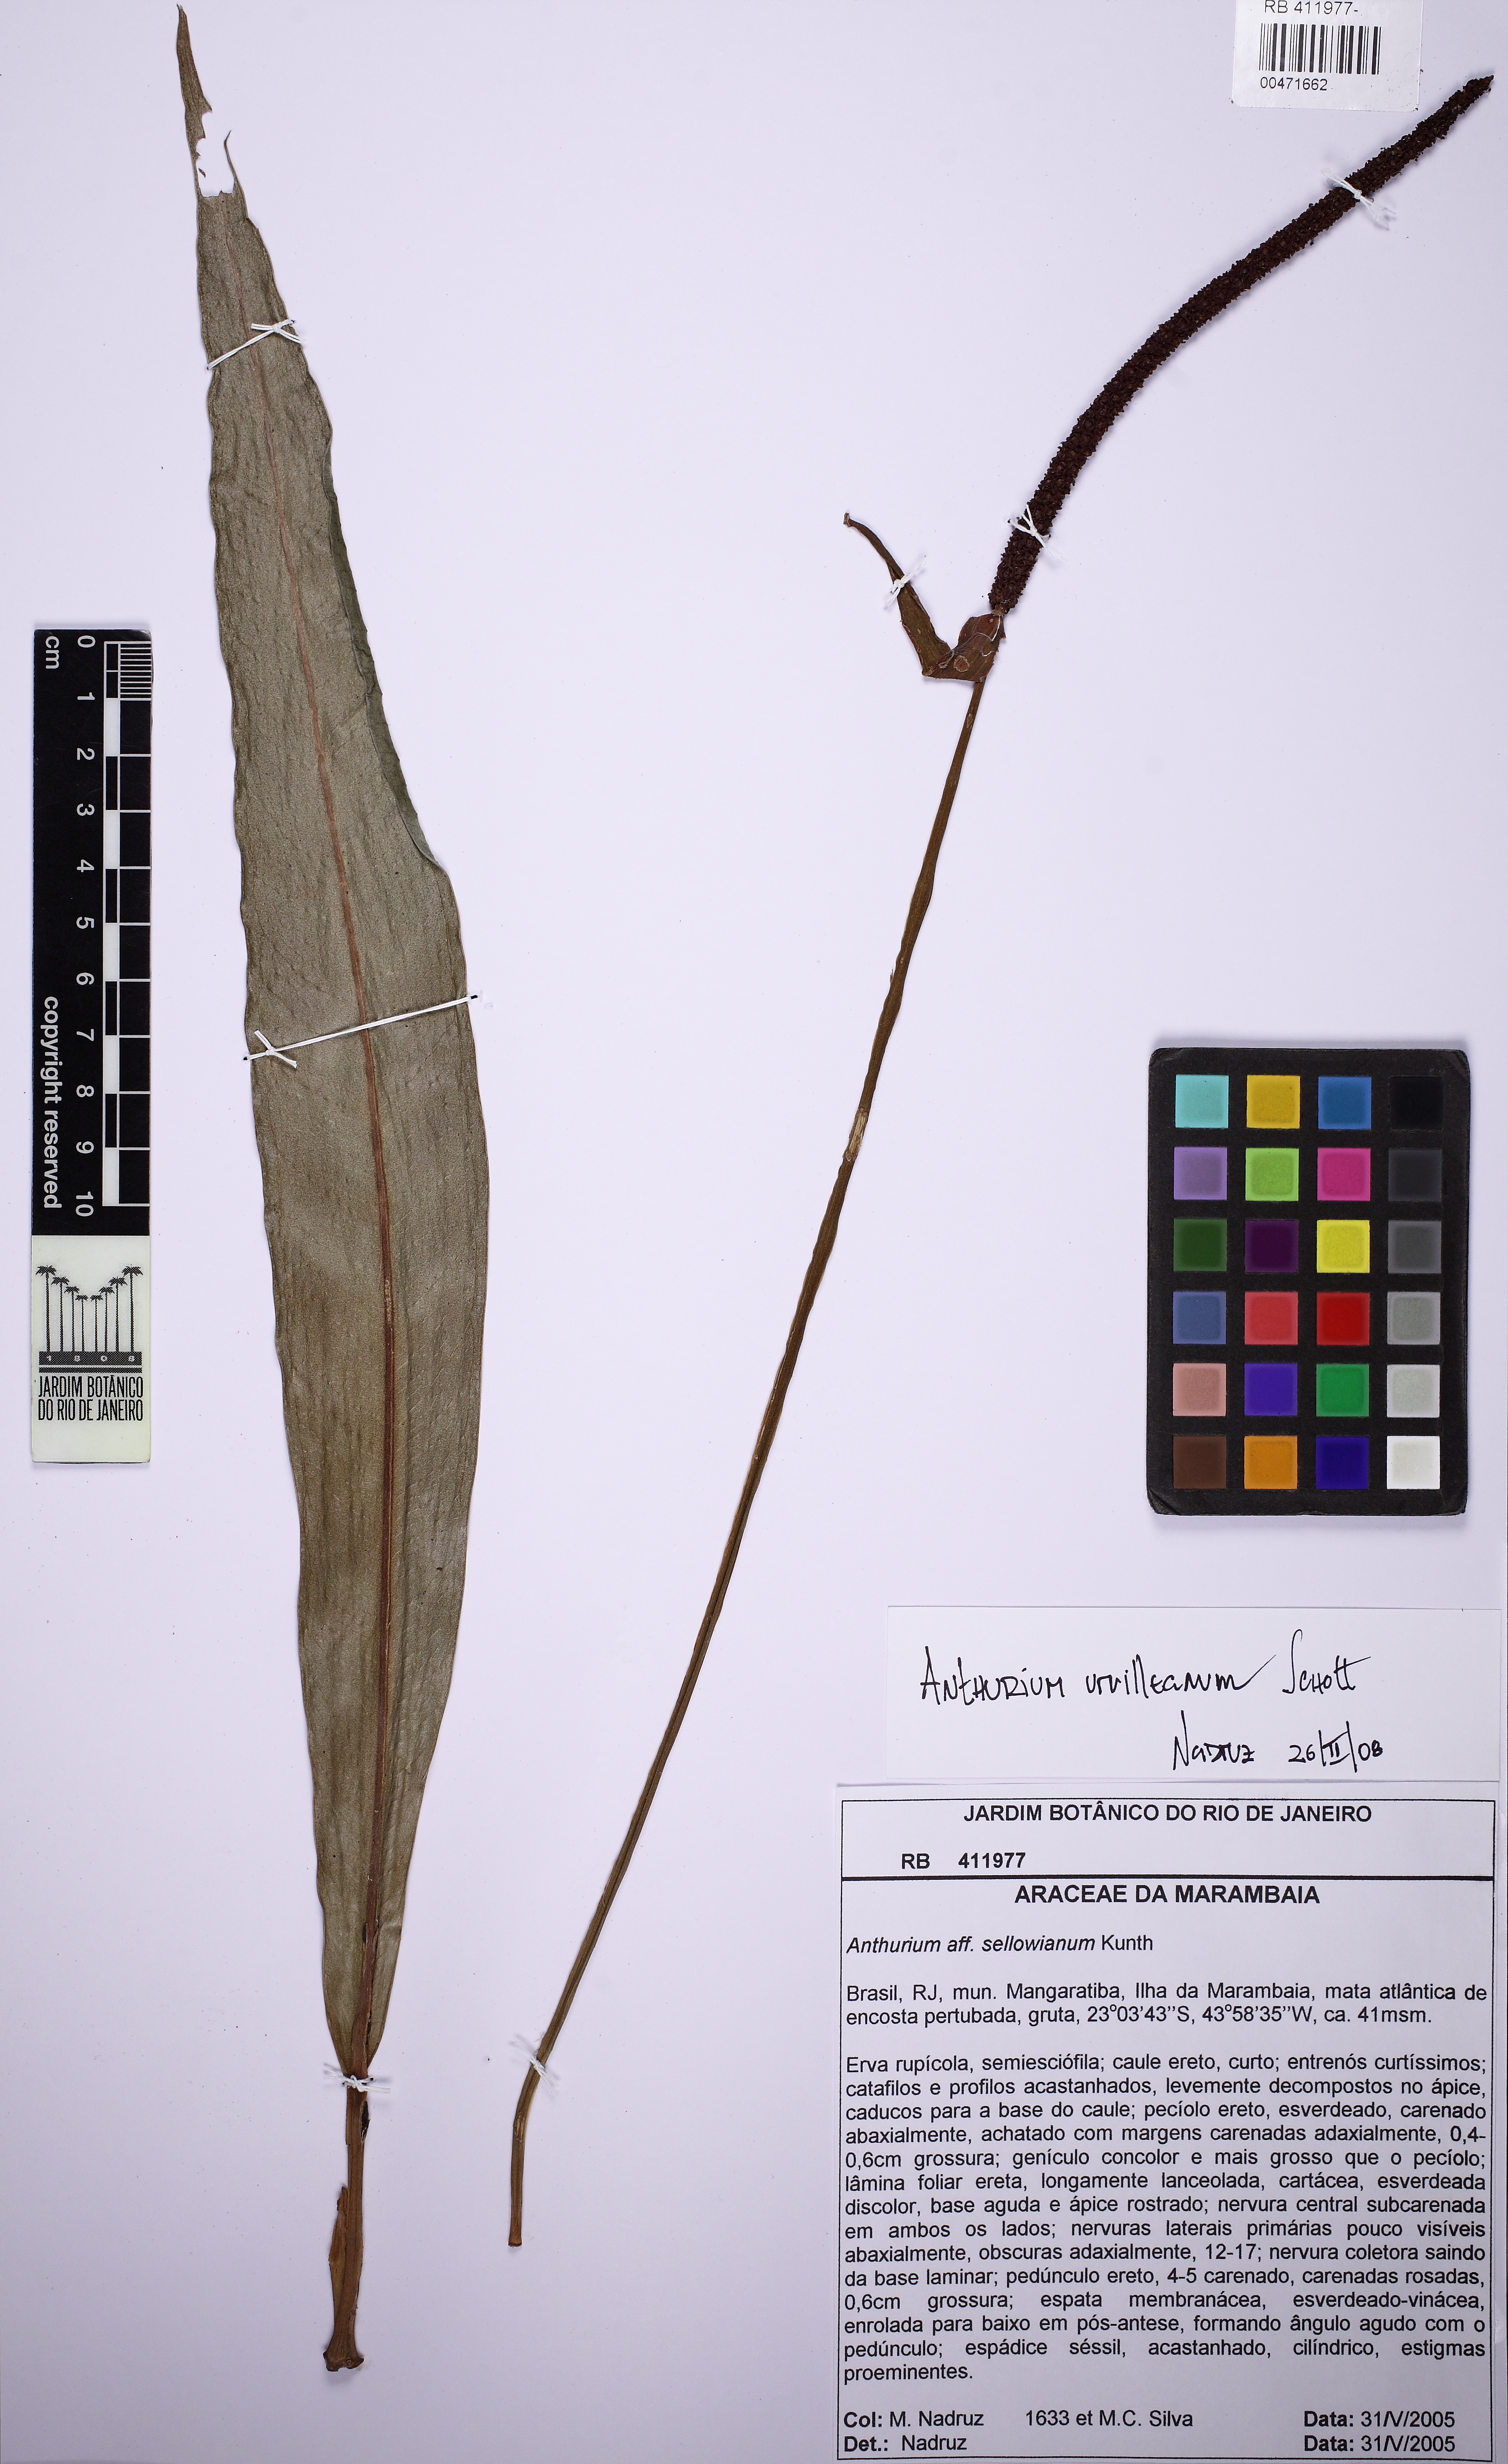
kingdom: Plantae
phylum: Tracheophyta
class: Liliopsida
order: Alismatales
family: Araceae
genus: Anthurium
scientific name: Anthurium urvilleanum
